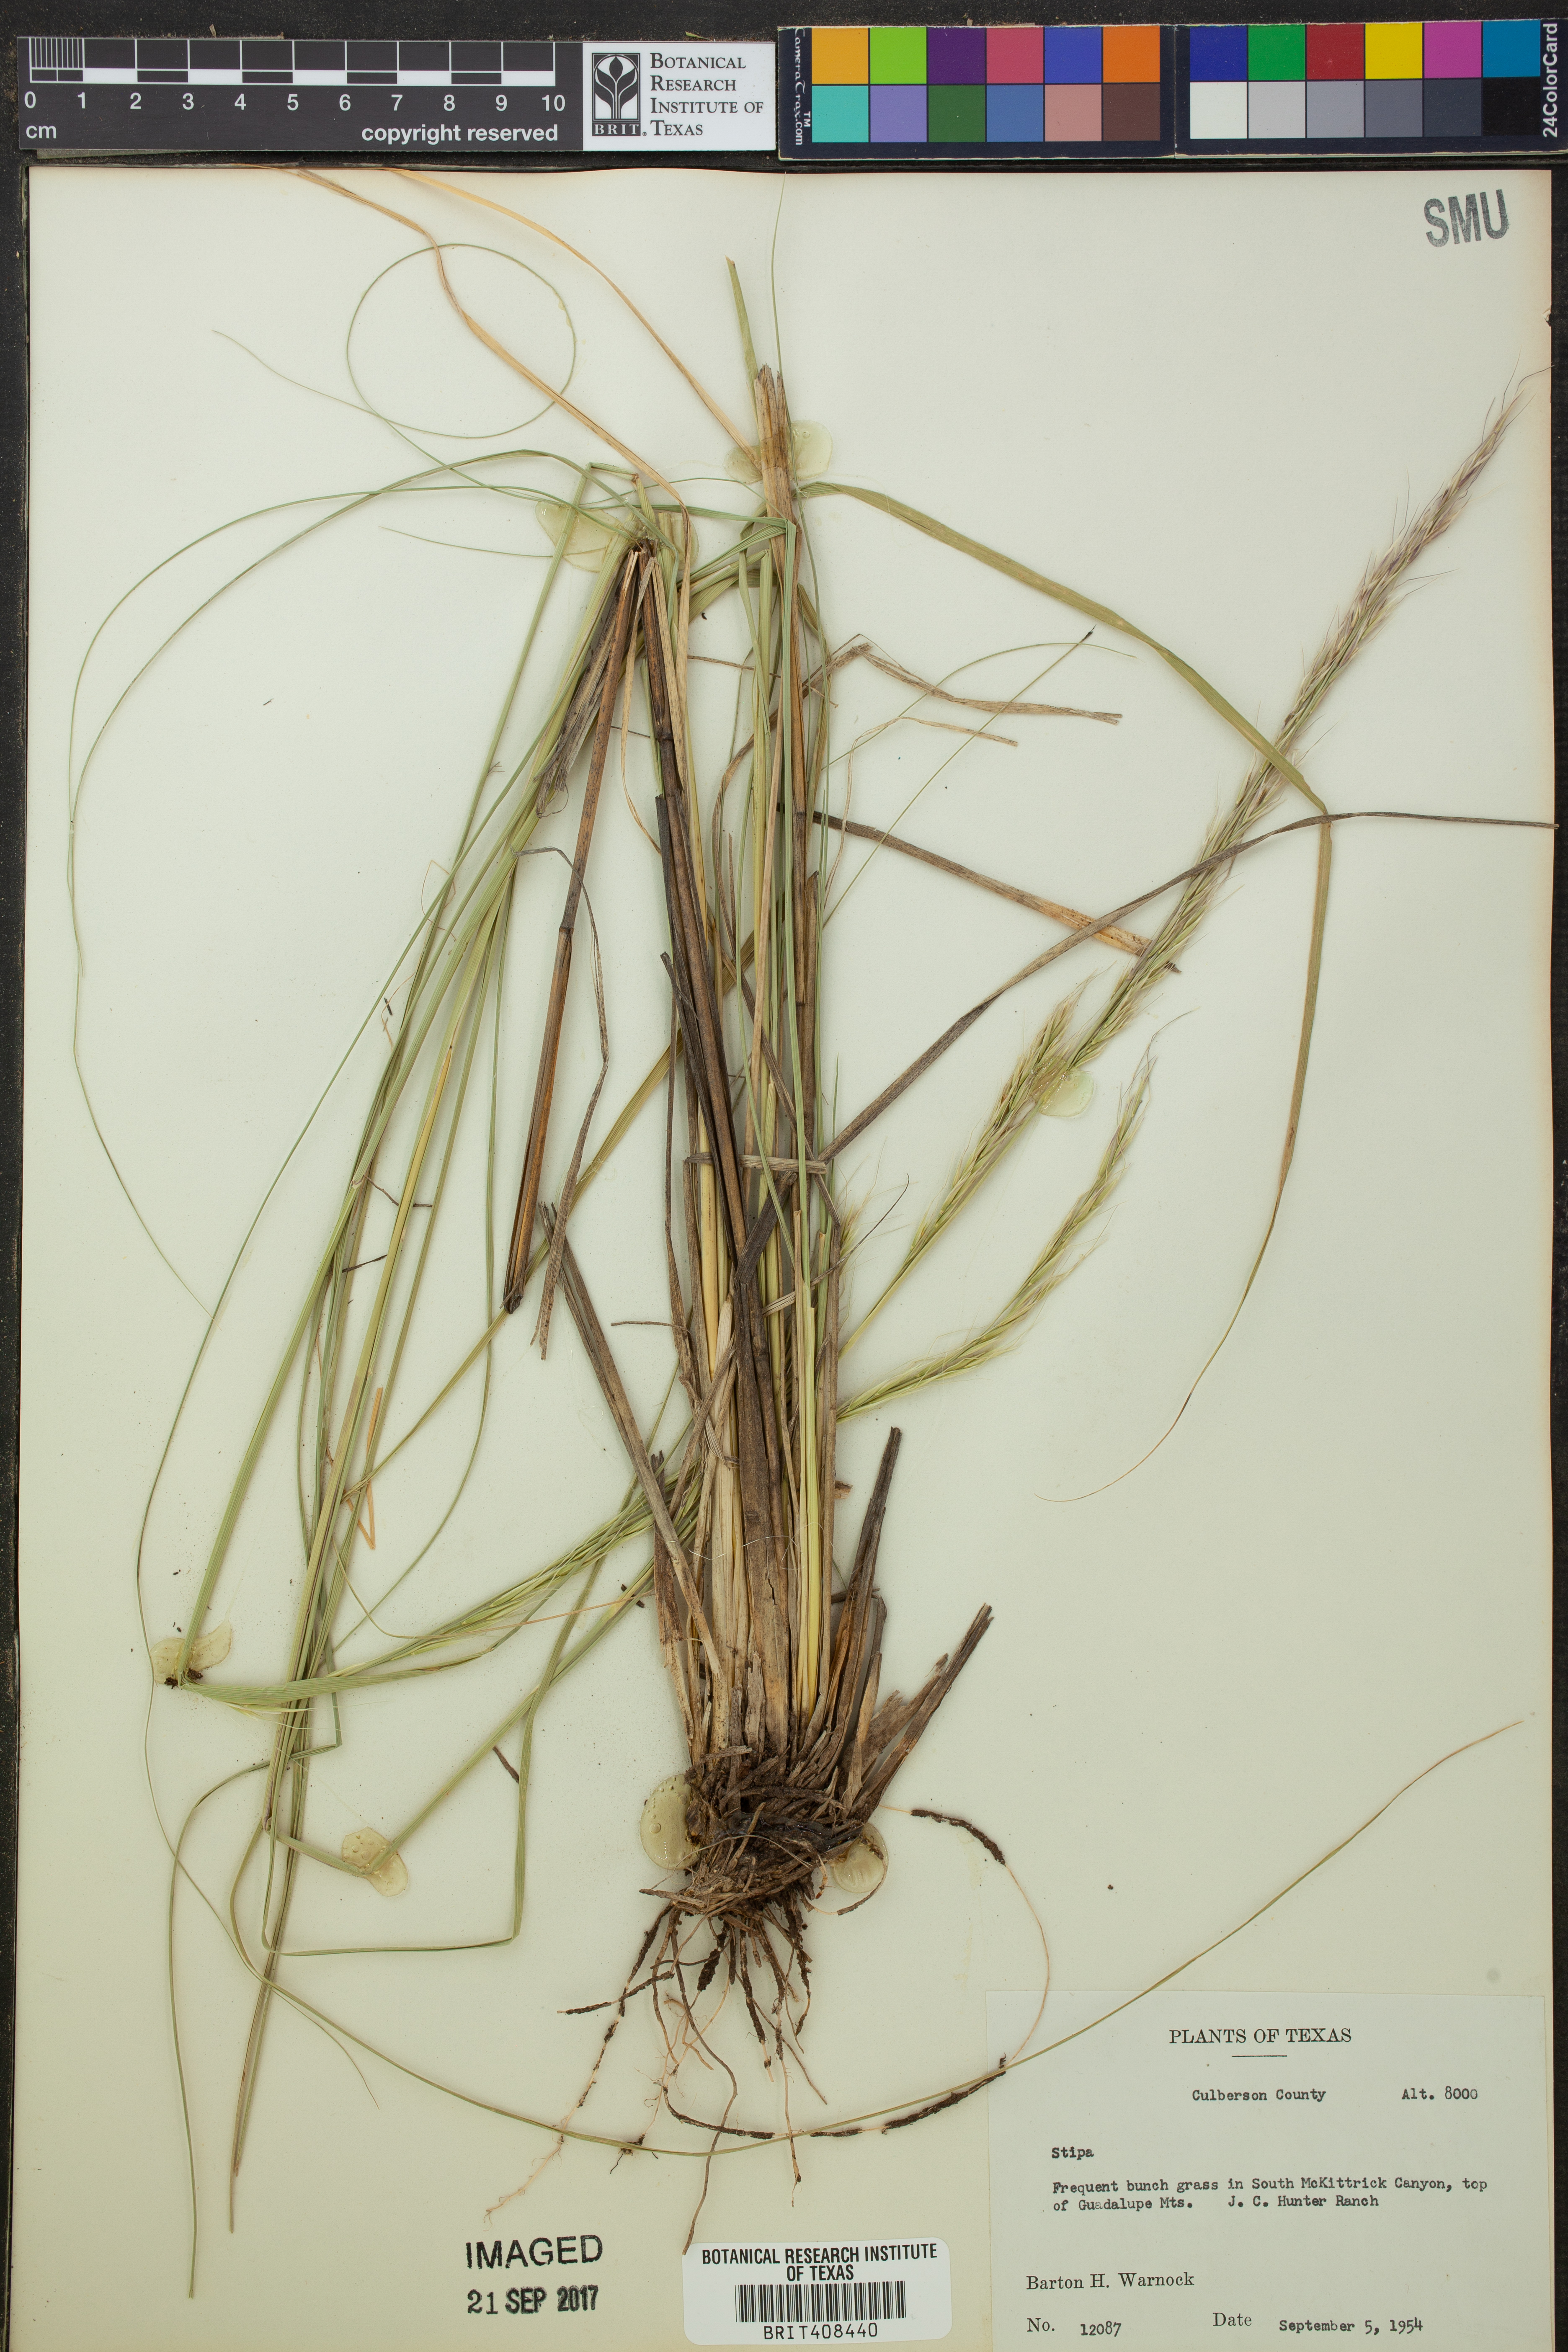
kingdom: Plantae
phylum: Tracheophyta
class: Liliopsida
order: Poales
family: Poaceae
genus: Stipa
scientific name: Stipa
